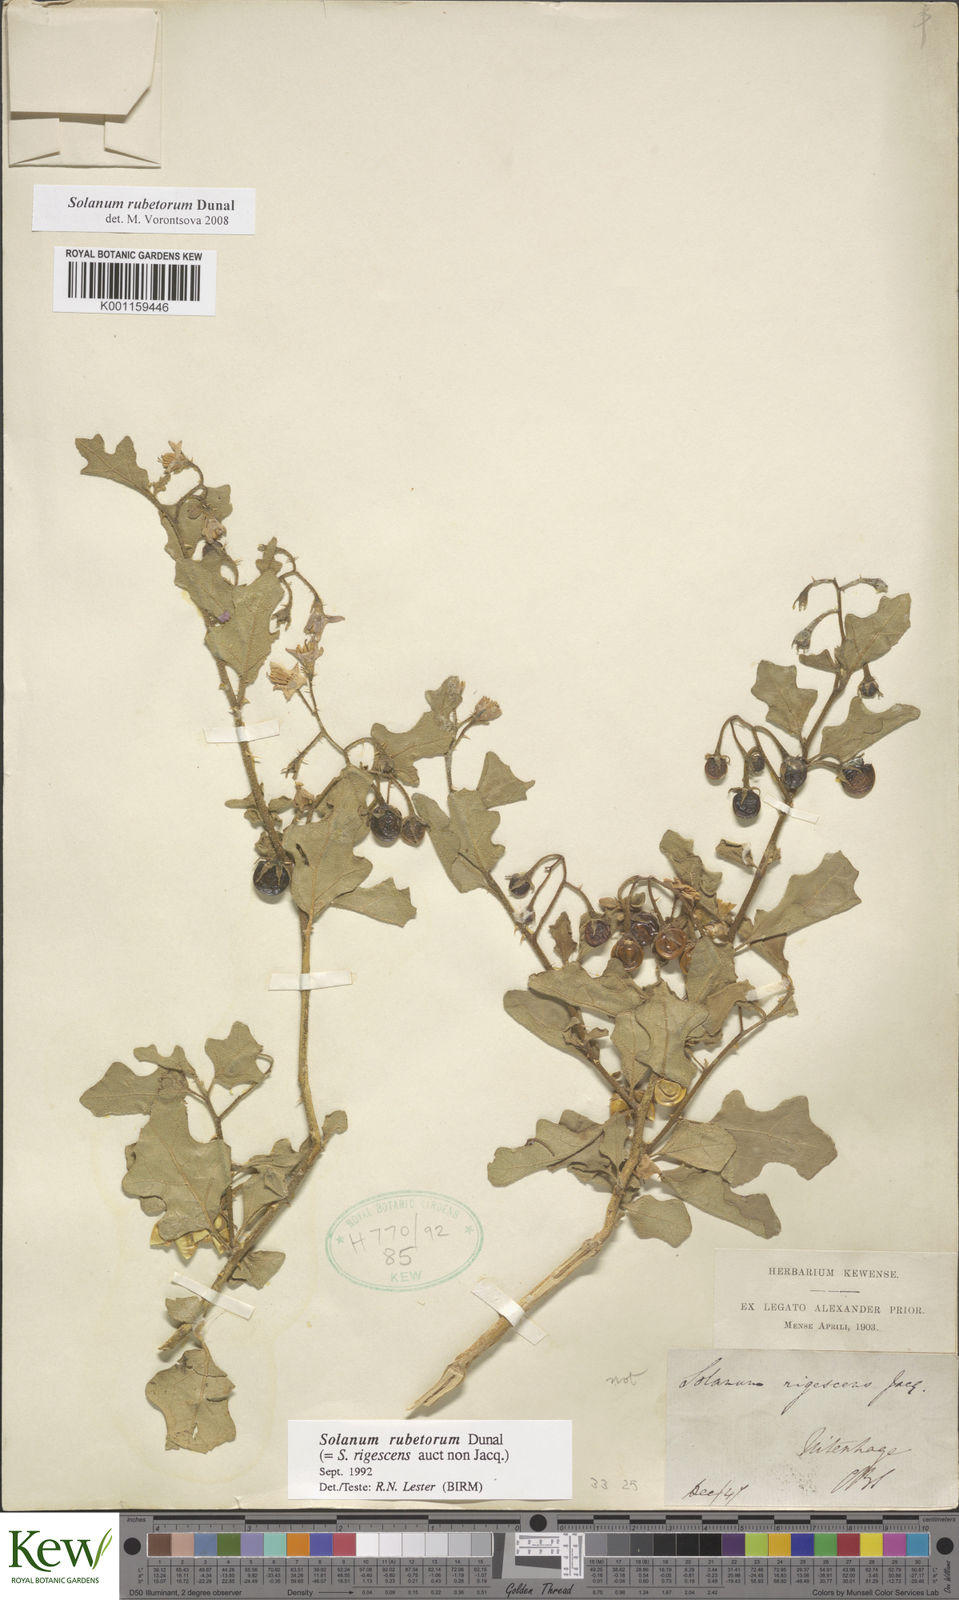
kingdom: Plantae
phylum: Tracheophyta
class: Magnoliopsida
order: Solanales
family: Solanaceae
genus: Solanum
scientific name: Solanum rubetorum
